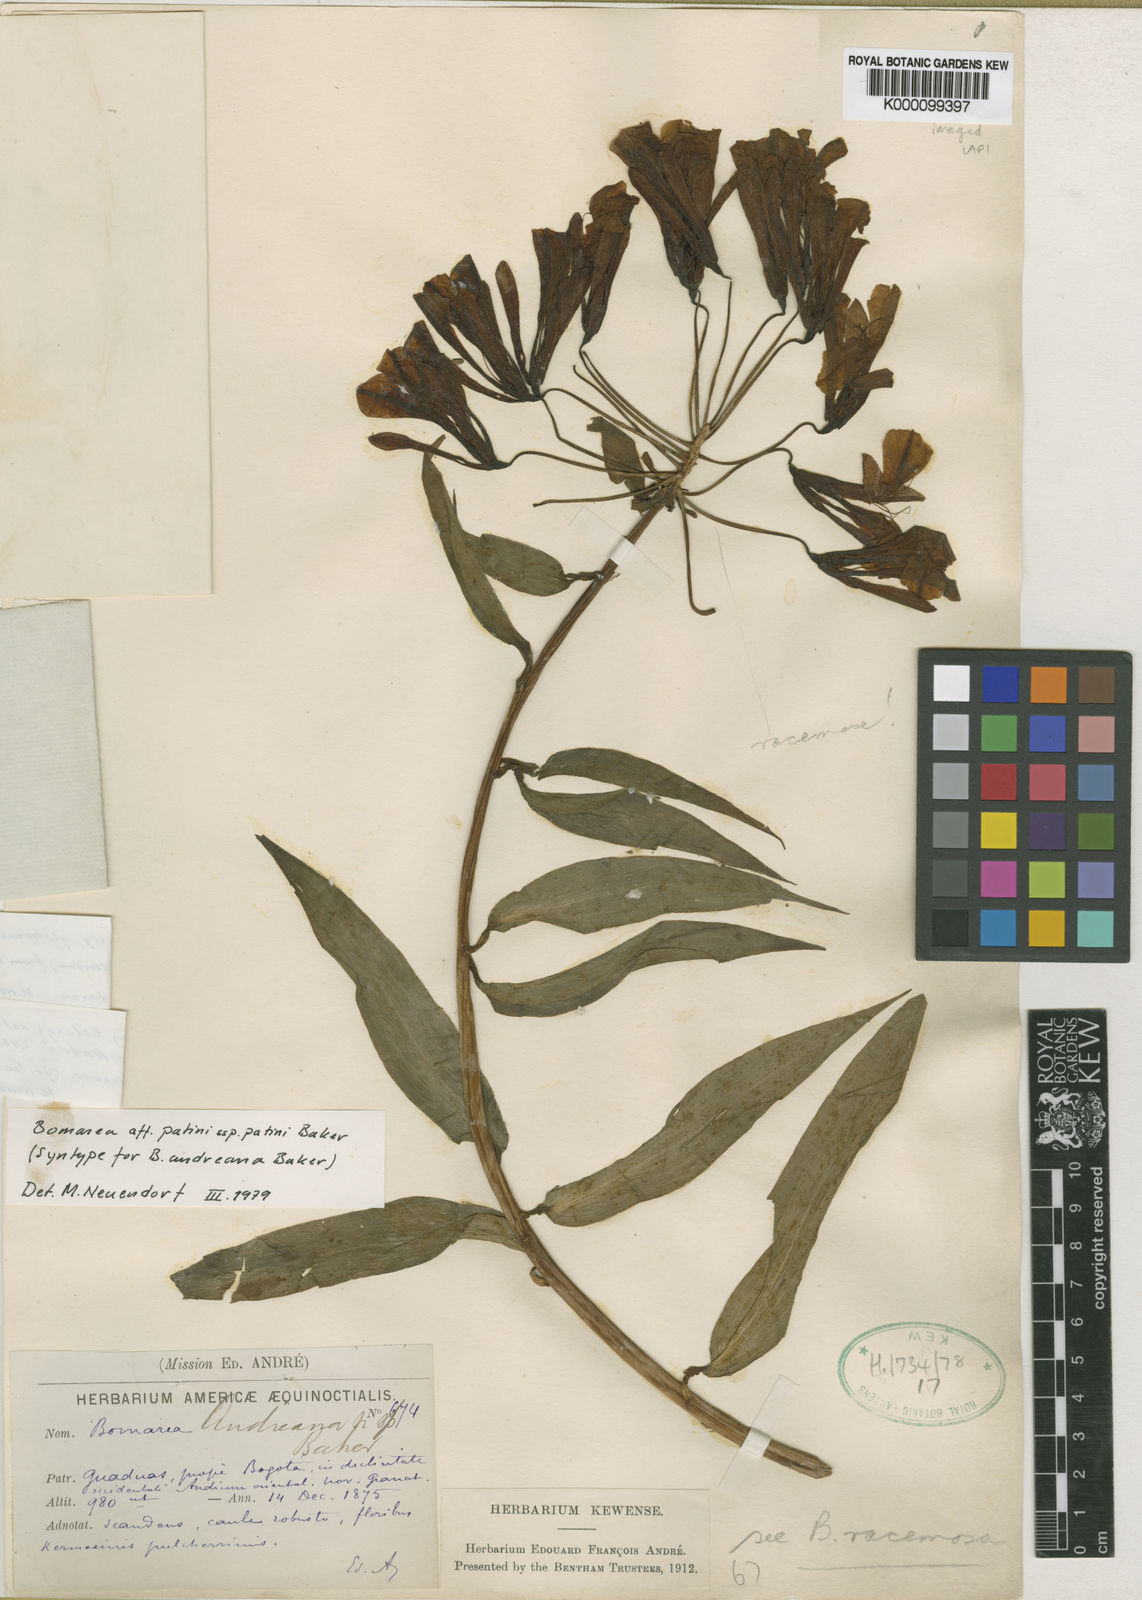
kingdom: Plantae
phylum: Tracheophyta
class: Liliopsida
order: Liliales
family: Alstroemeriaceae
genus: Bomarea
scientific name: Bomarea andreana
